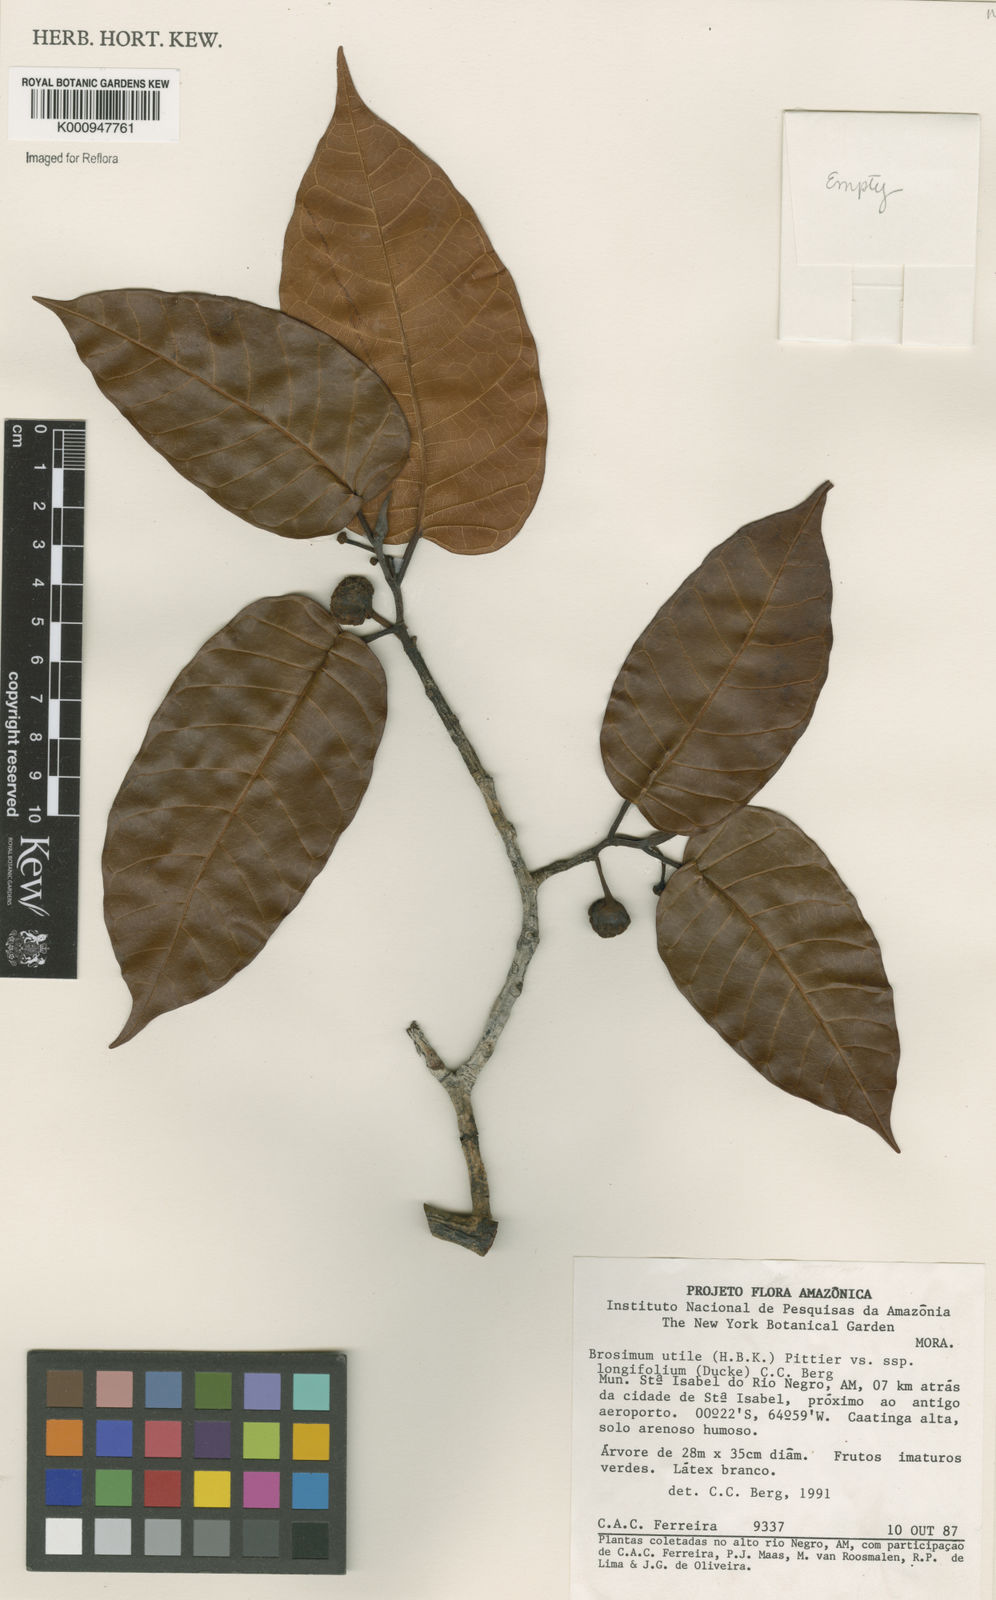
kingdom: Plantae
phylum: Tracheophyta
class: Magnoliopsida
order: Rosales
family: Moraceae
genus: Brosimum
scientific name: Brosimum longifolium
